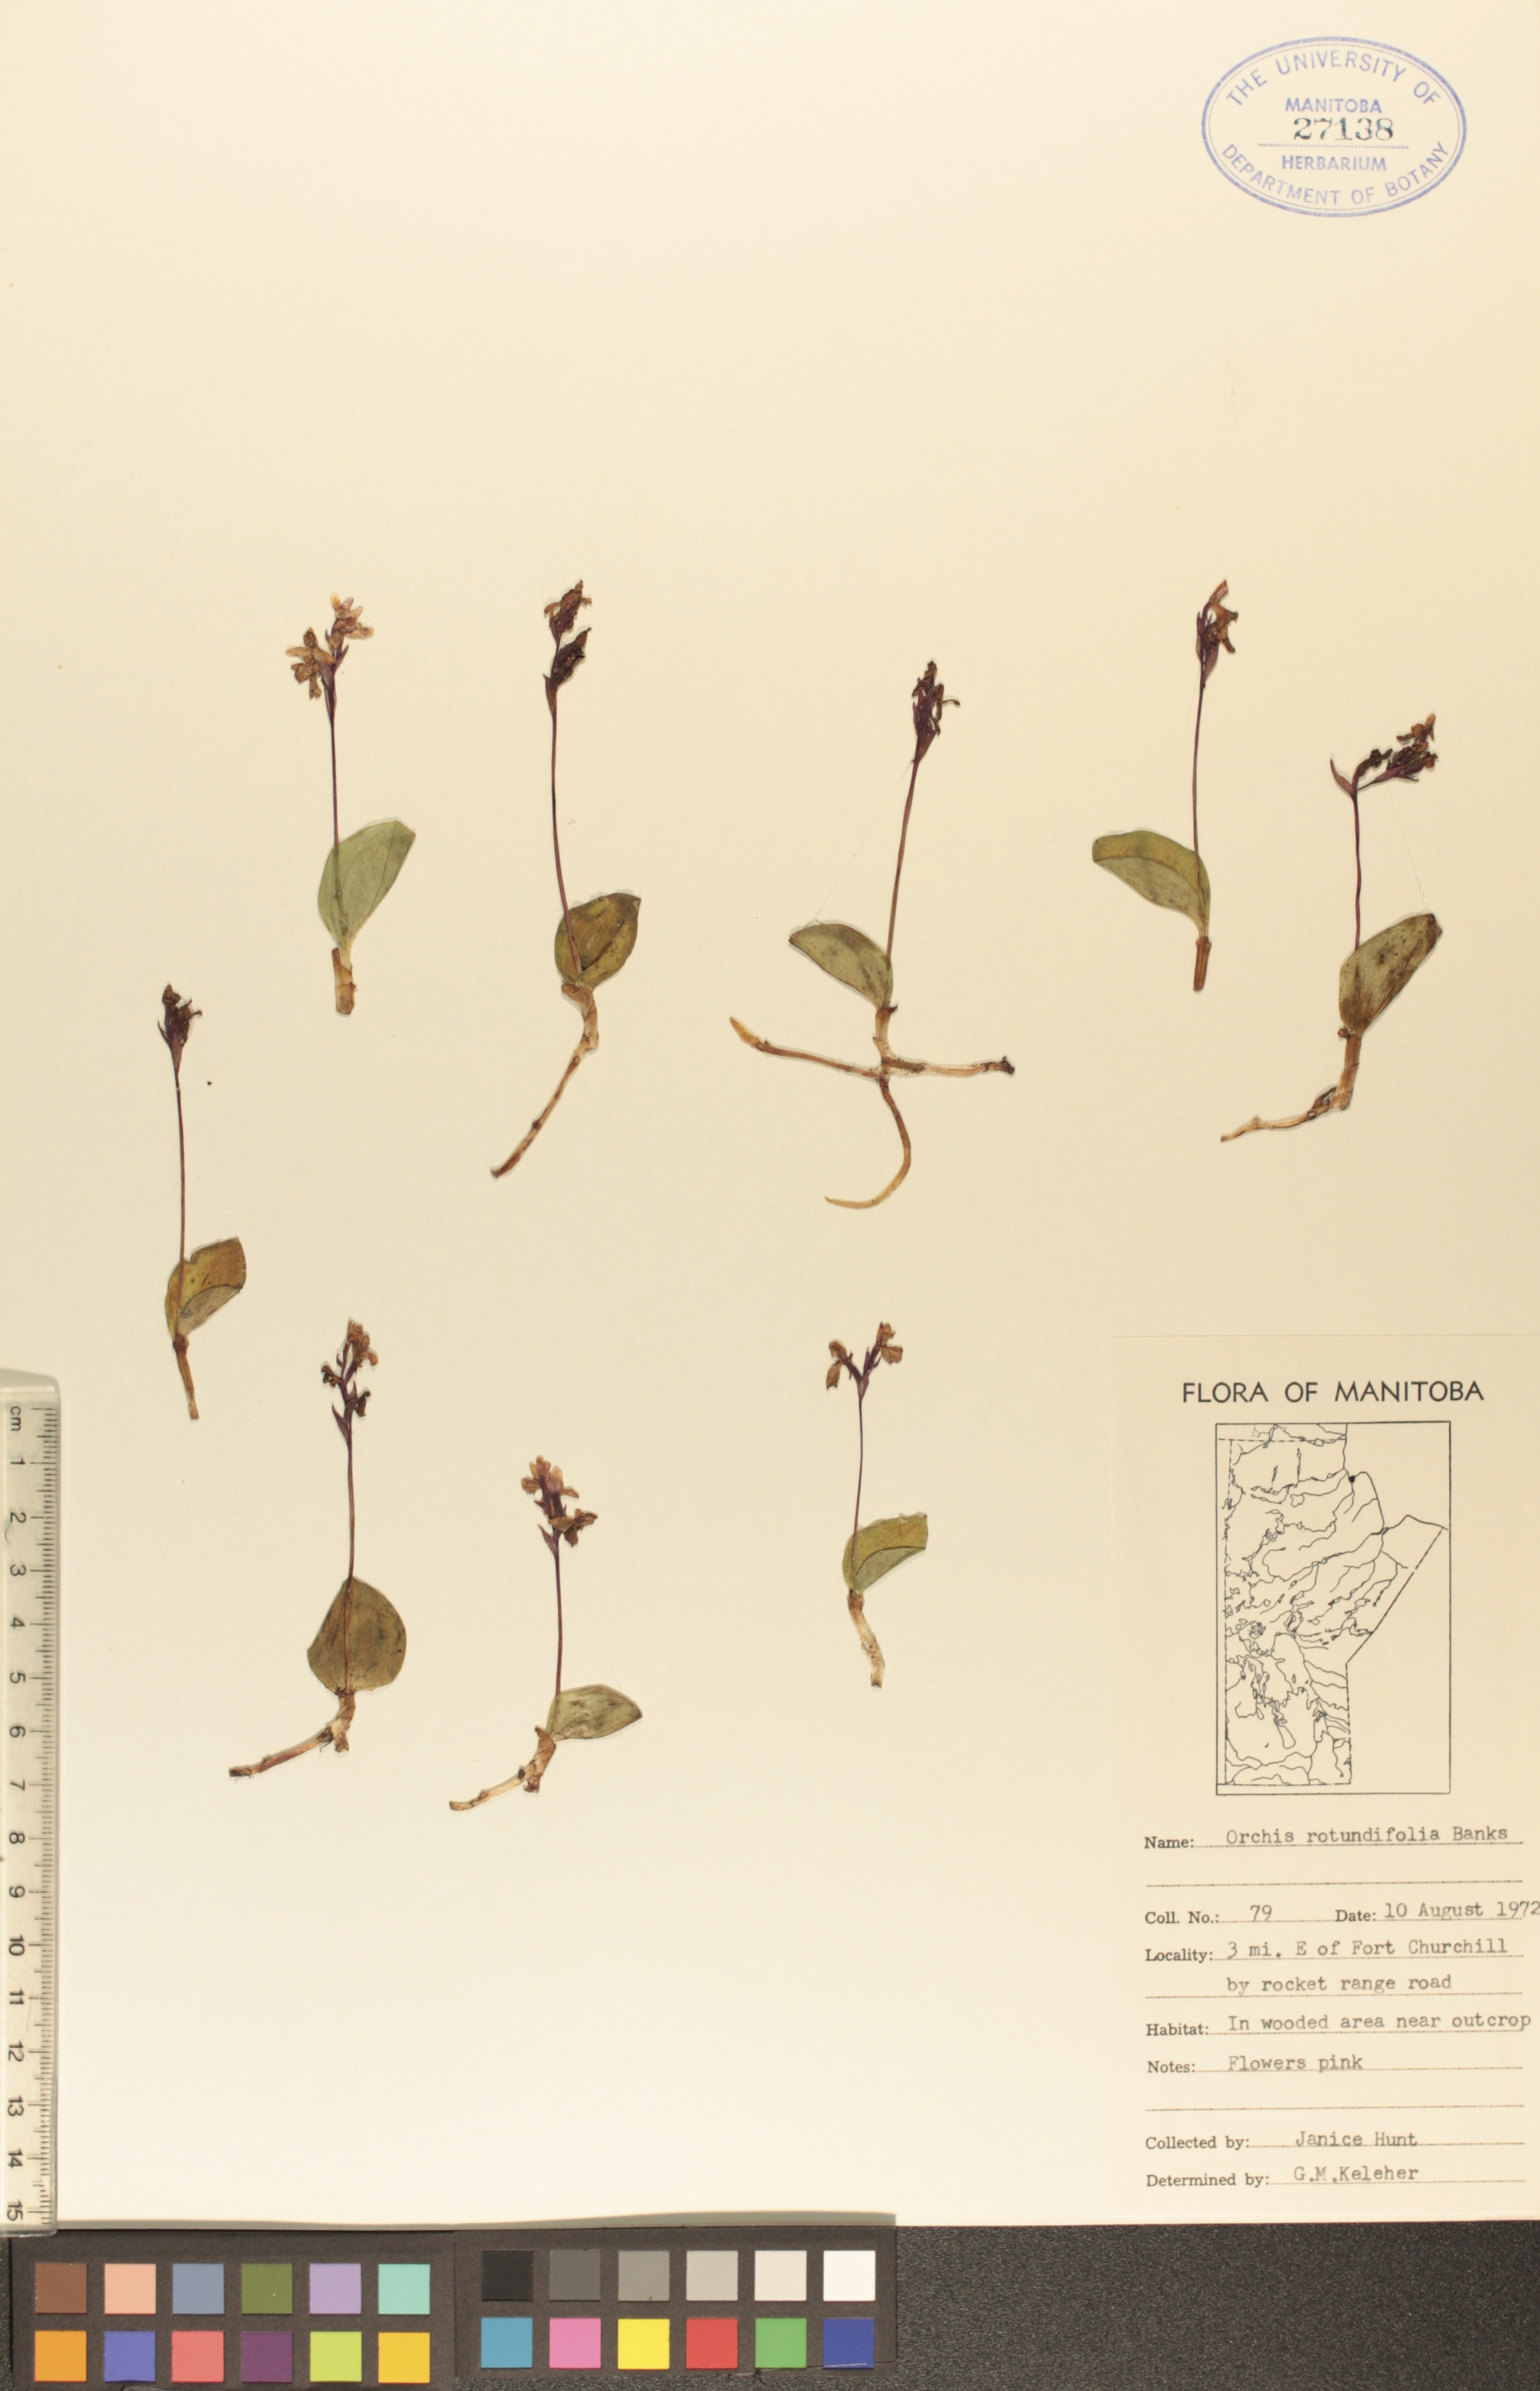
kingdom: Plantae
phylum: Tracheophyta
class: Liliopsida
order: Asparagales
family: Orchidaceae
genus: Galearis
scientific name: Galearis rotundifolia
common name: One-leaved orchis
